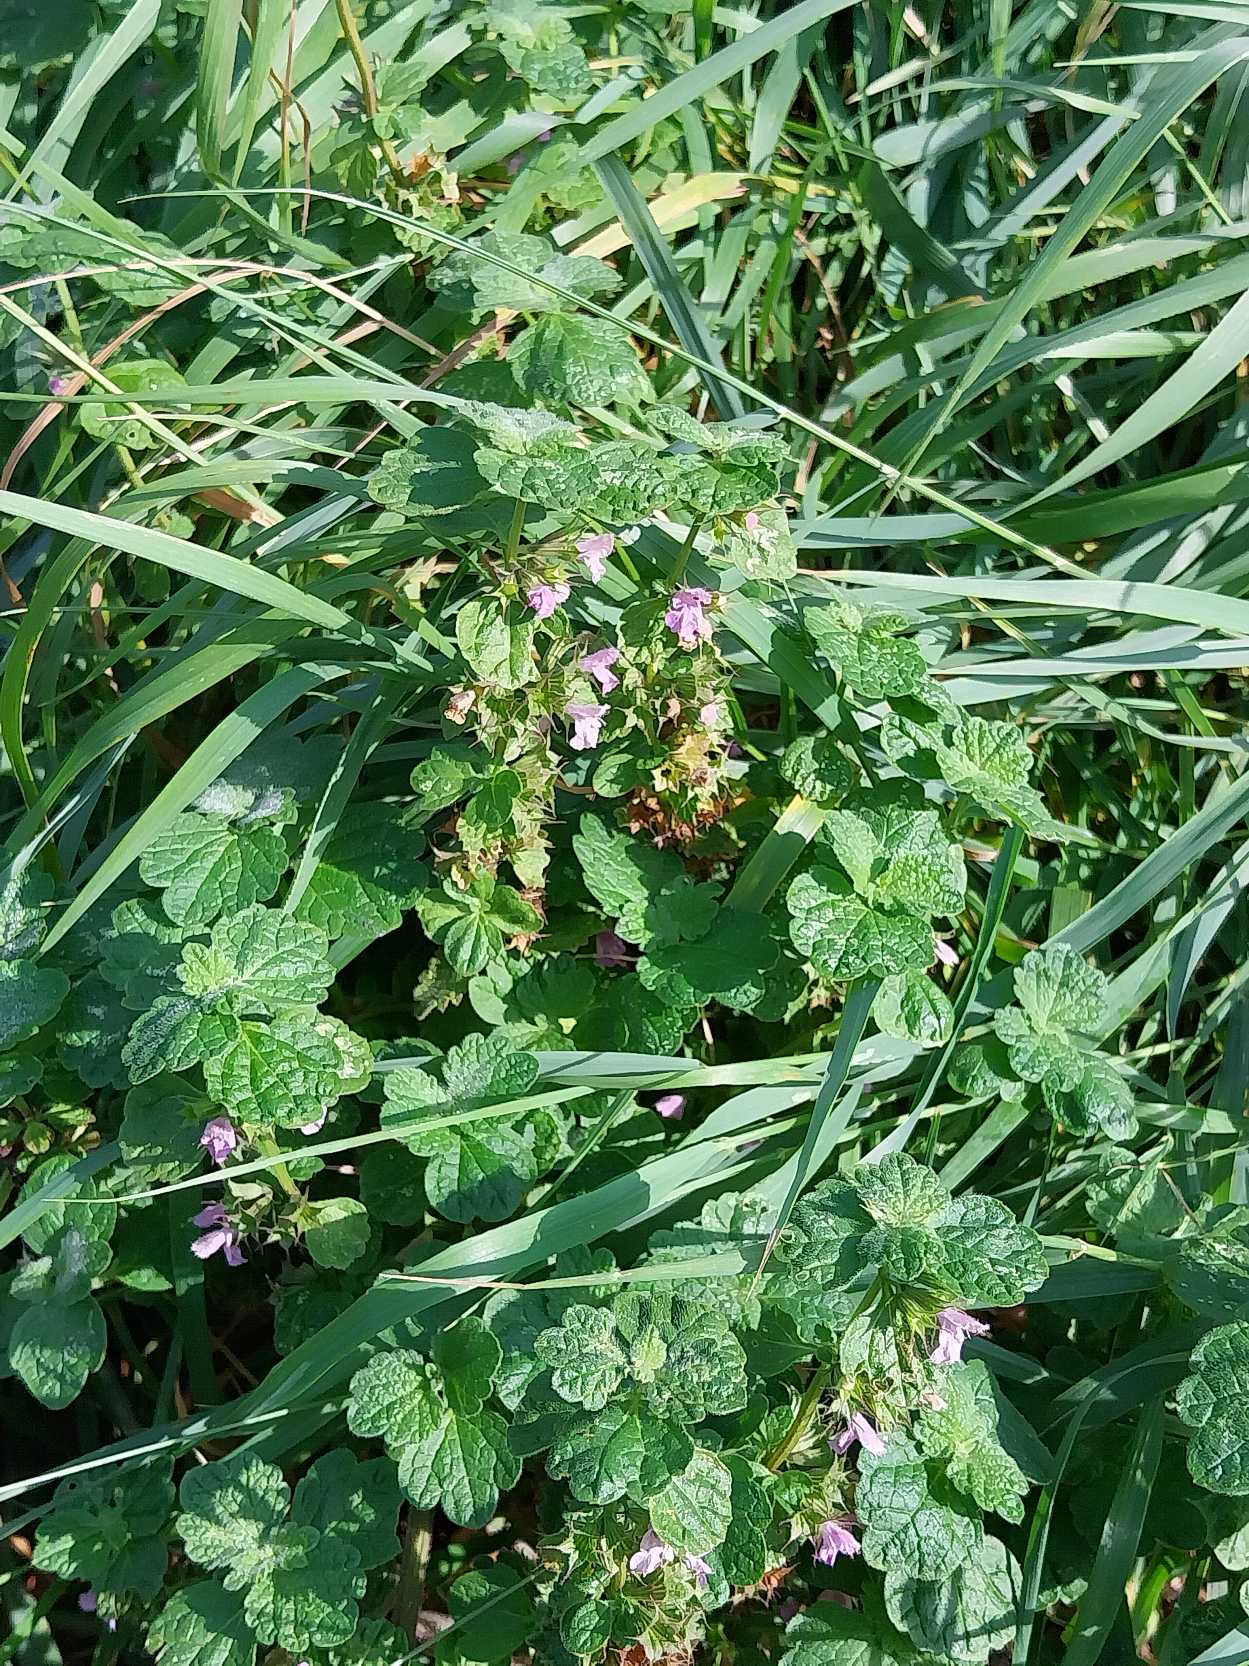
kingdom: Plantae
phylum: Tracheophyta
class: Magnoliopsida
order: Lamiales
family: Lamiaceae
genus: Ballota
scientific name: Ballota nigra
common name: Tandbæger
